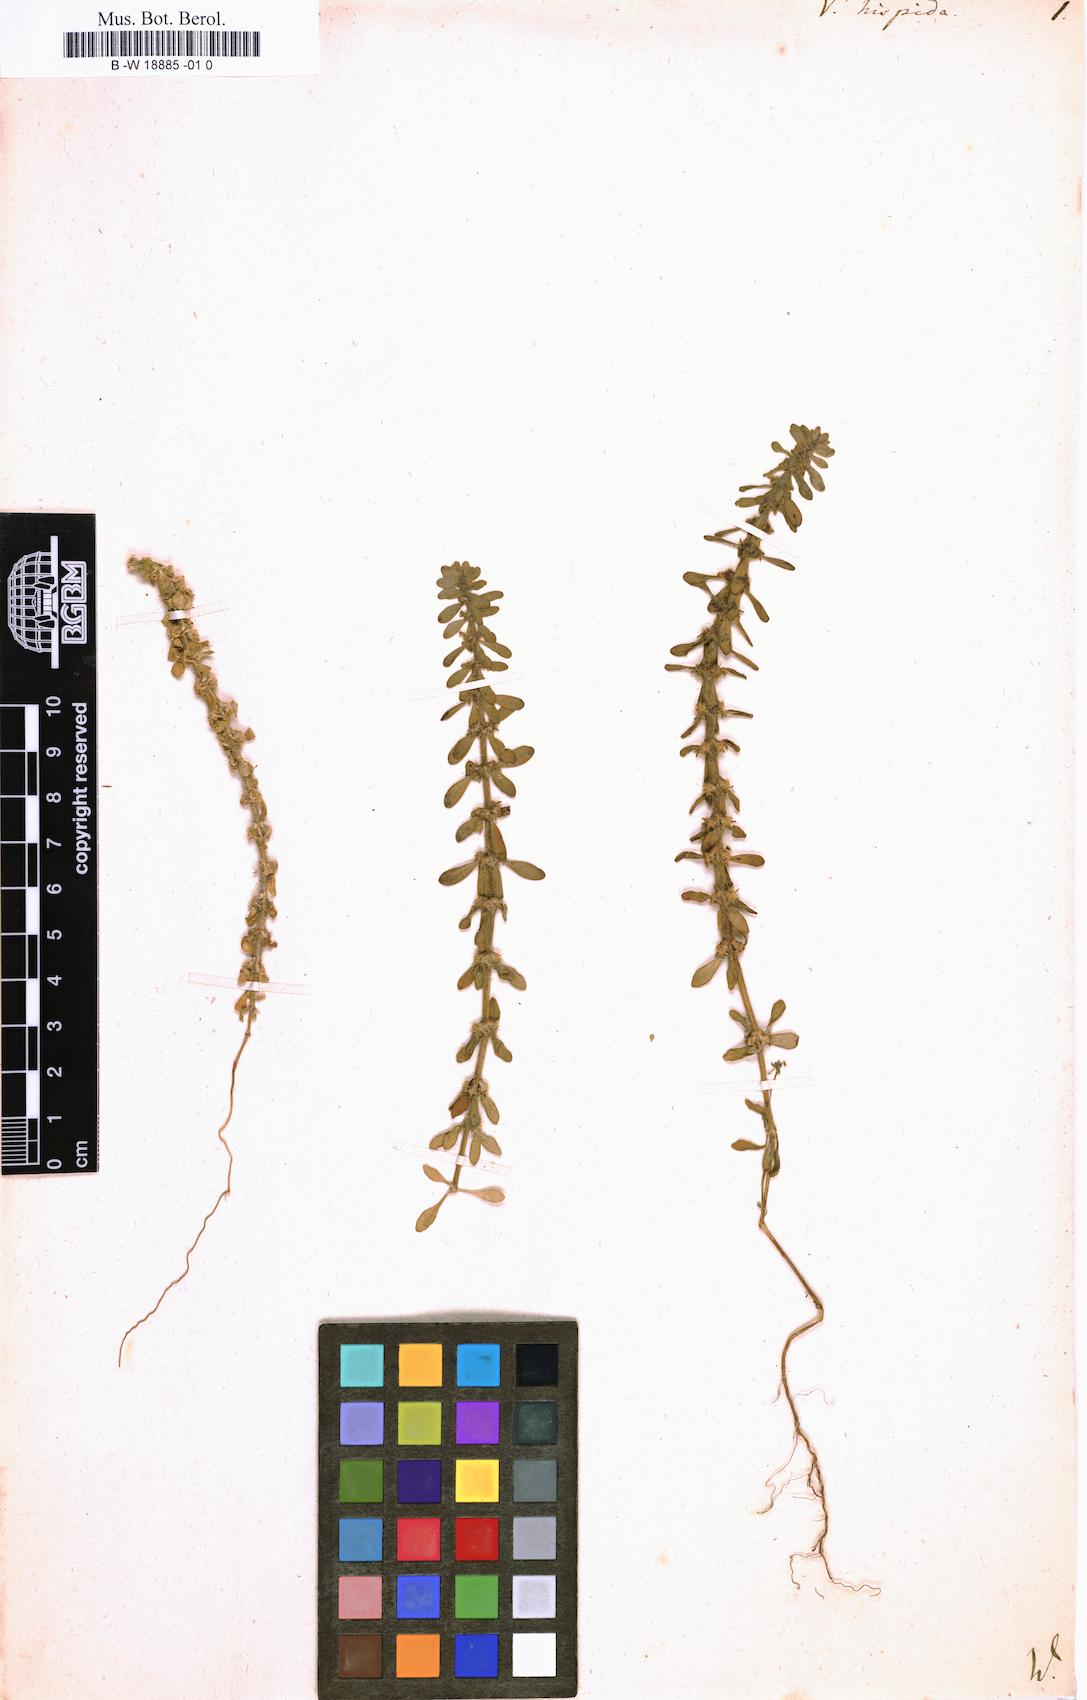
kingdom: Plantae
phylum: Tracheophyta
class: Magnoliopsida
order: Gentianales
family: Rubiaceae
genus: Valantia
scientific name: Valantia hispida
